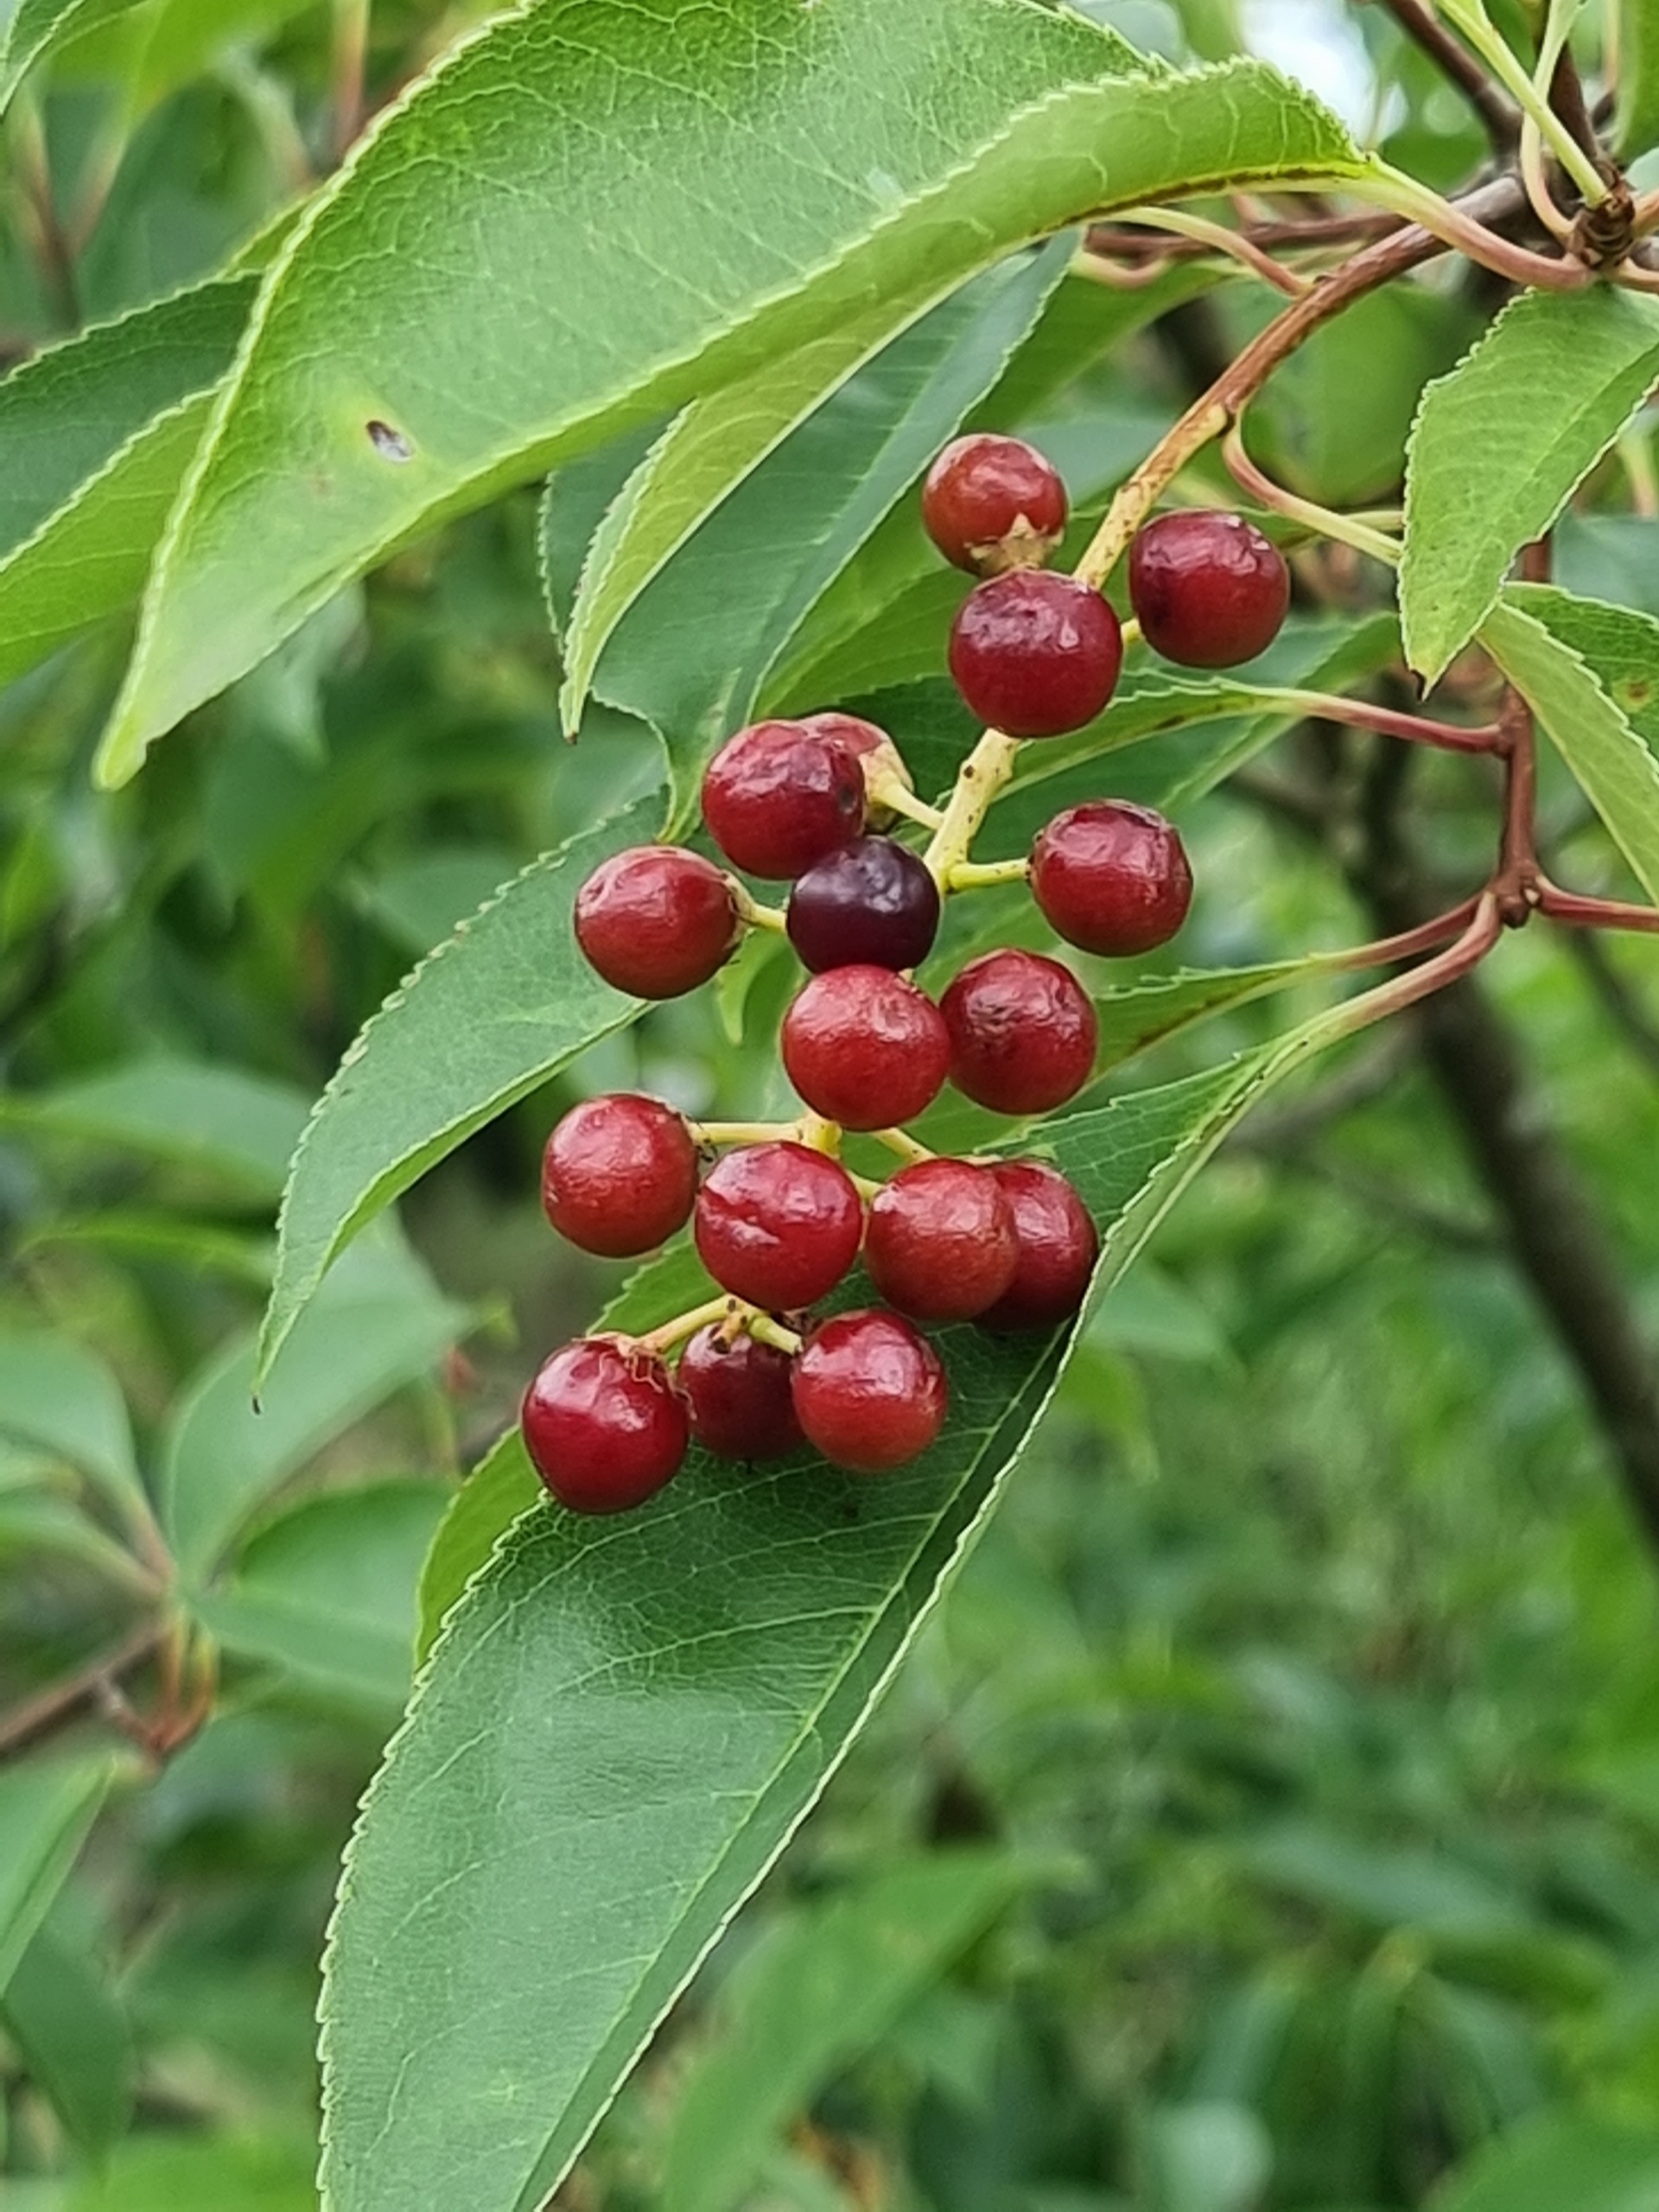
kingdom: Plantae
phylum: Tracheophyta
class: Magnoliopsida
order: Rosales
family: Rosaceae
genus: Prunus
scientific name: Prunus serotina
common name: Glansbladet hæg
